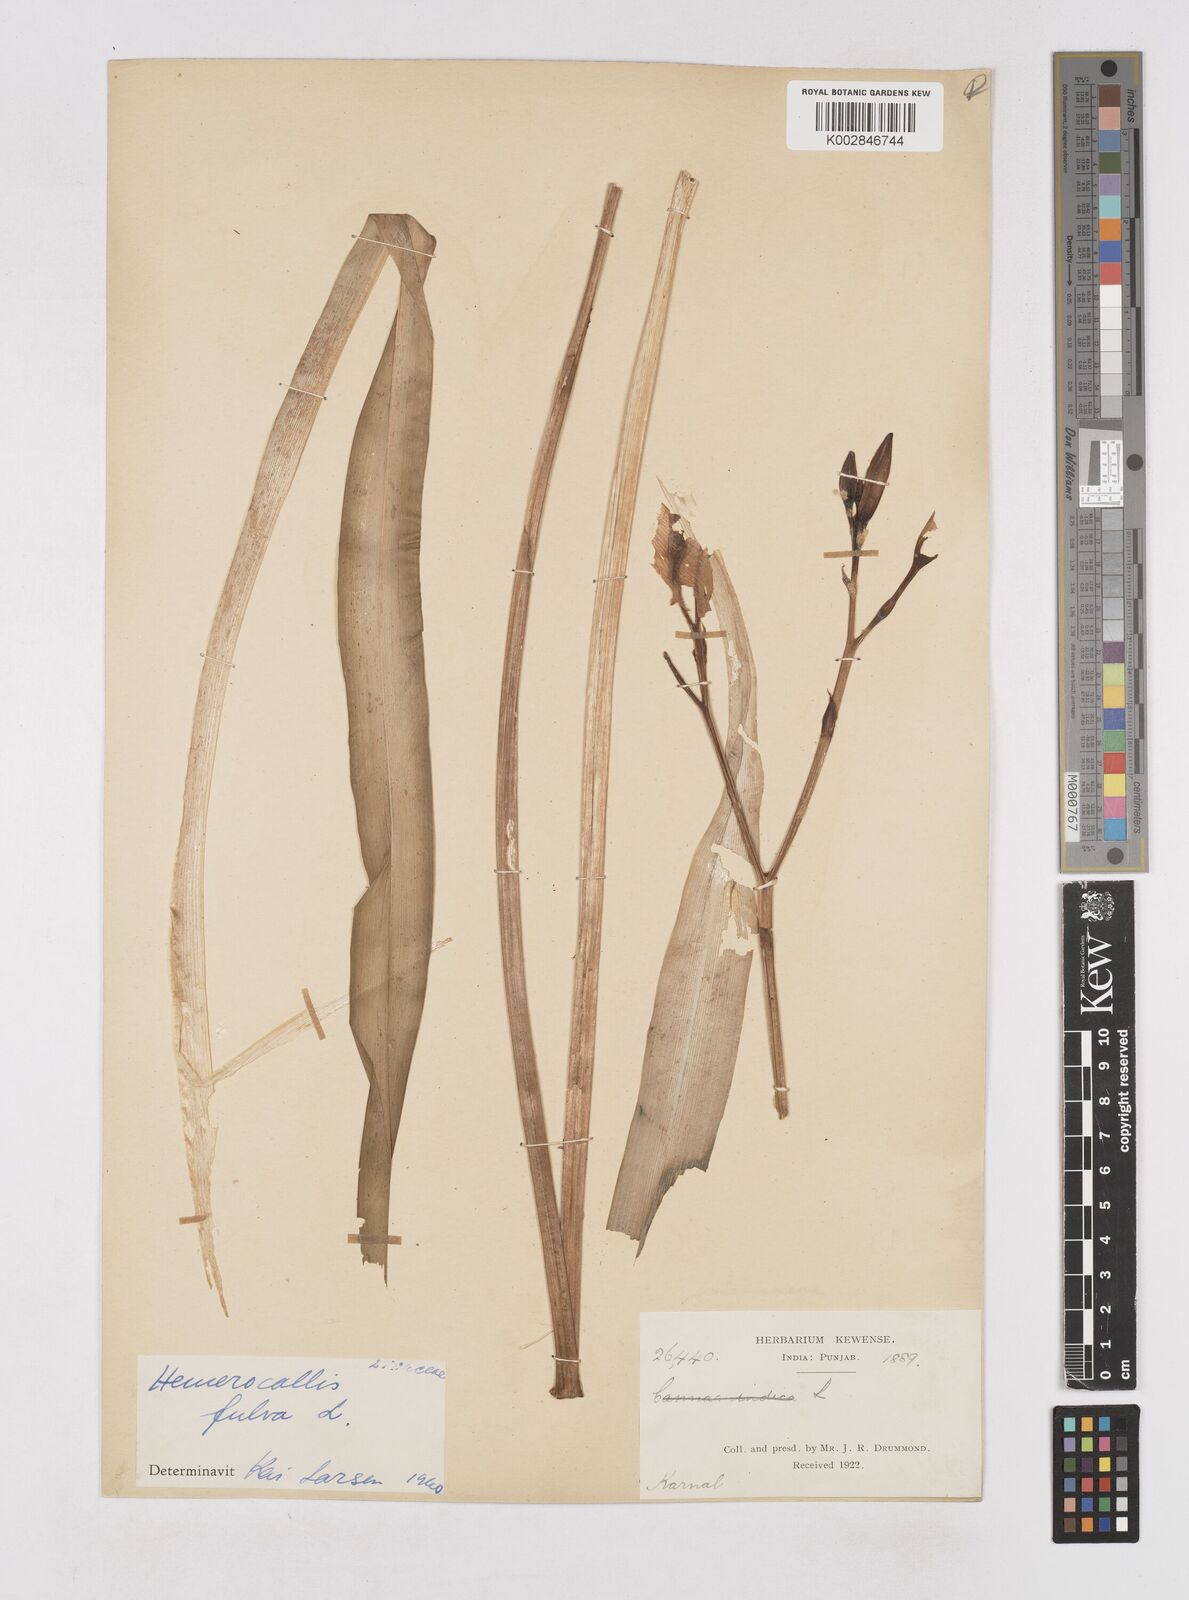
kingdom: Plantae
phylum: Tracheophyta
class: Liliopsida
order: Asparagales
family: Asphodelaceae
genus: Hemerocallis
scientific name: Hemerocallis fulva
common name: Orange day-lily
